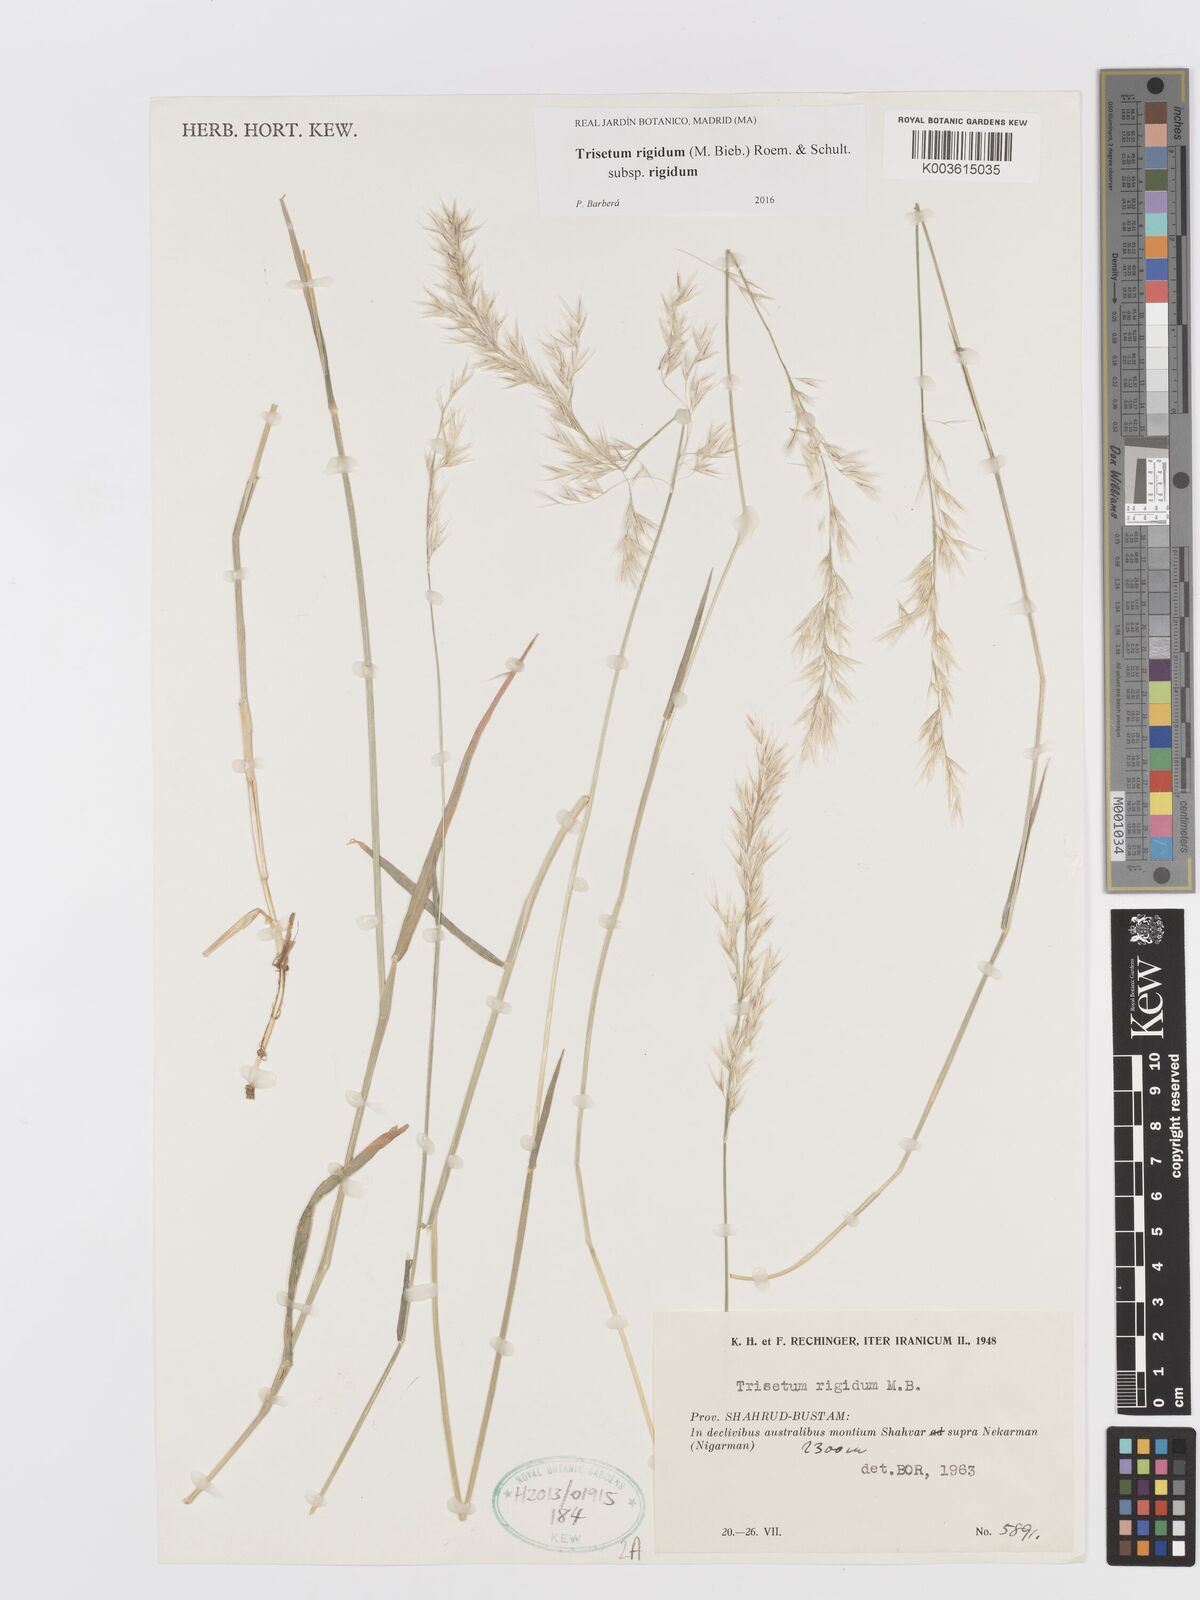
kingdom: Plantae
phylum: Tracheophyta
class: Liliopsida
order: Poales
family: Poaceae
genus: Trisetum
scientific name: Trisetum rigidum
